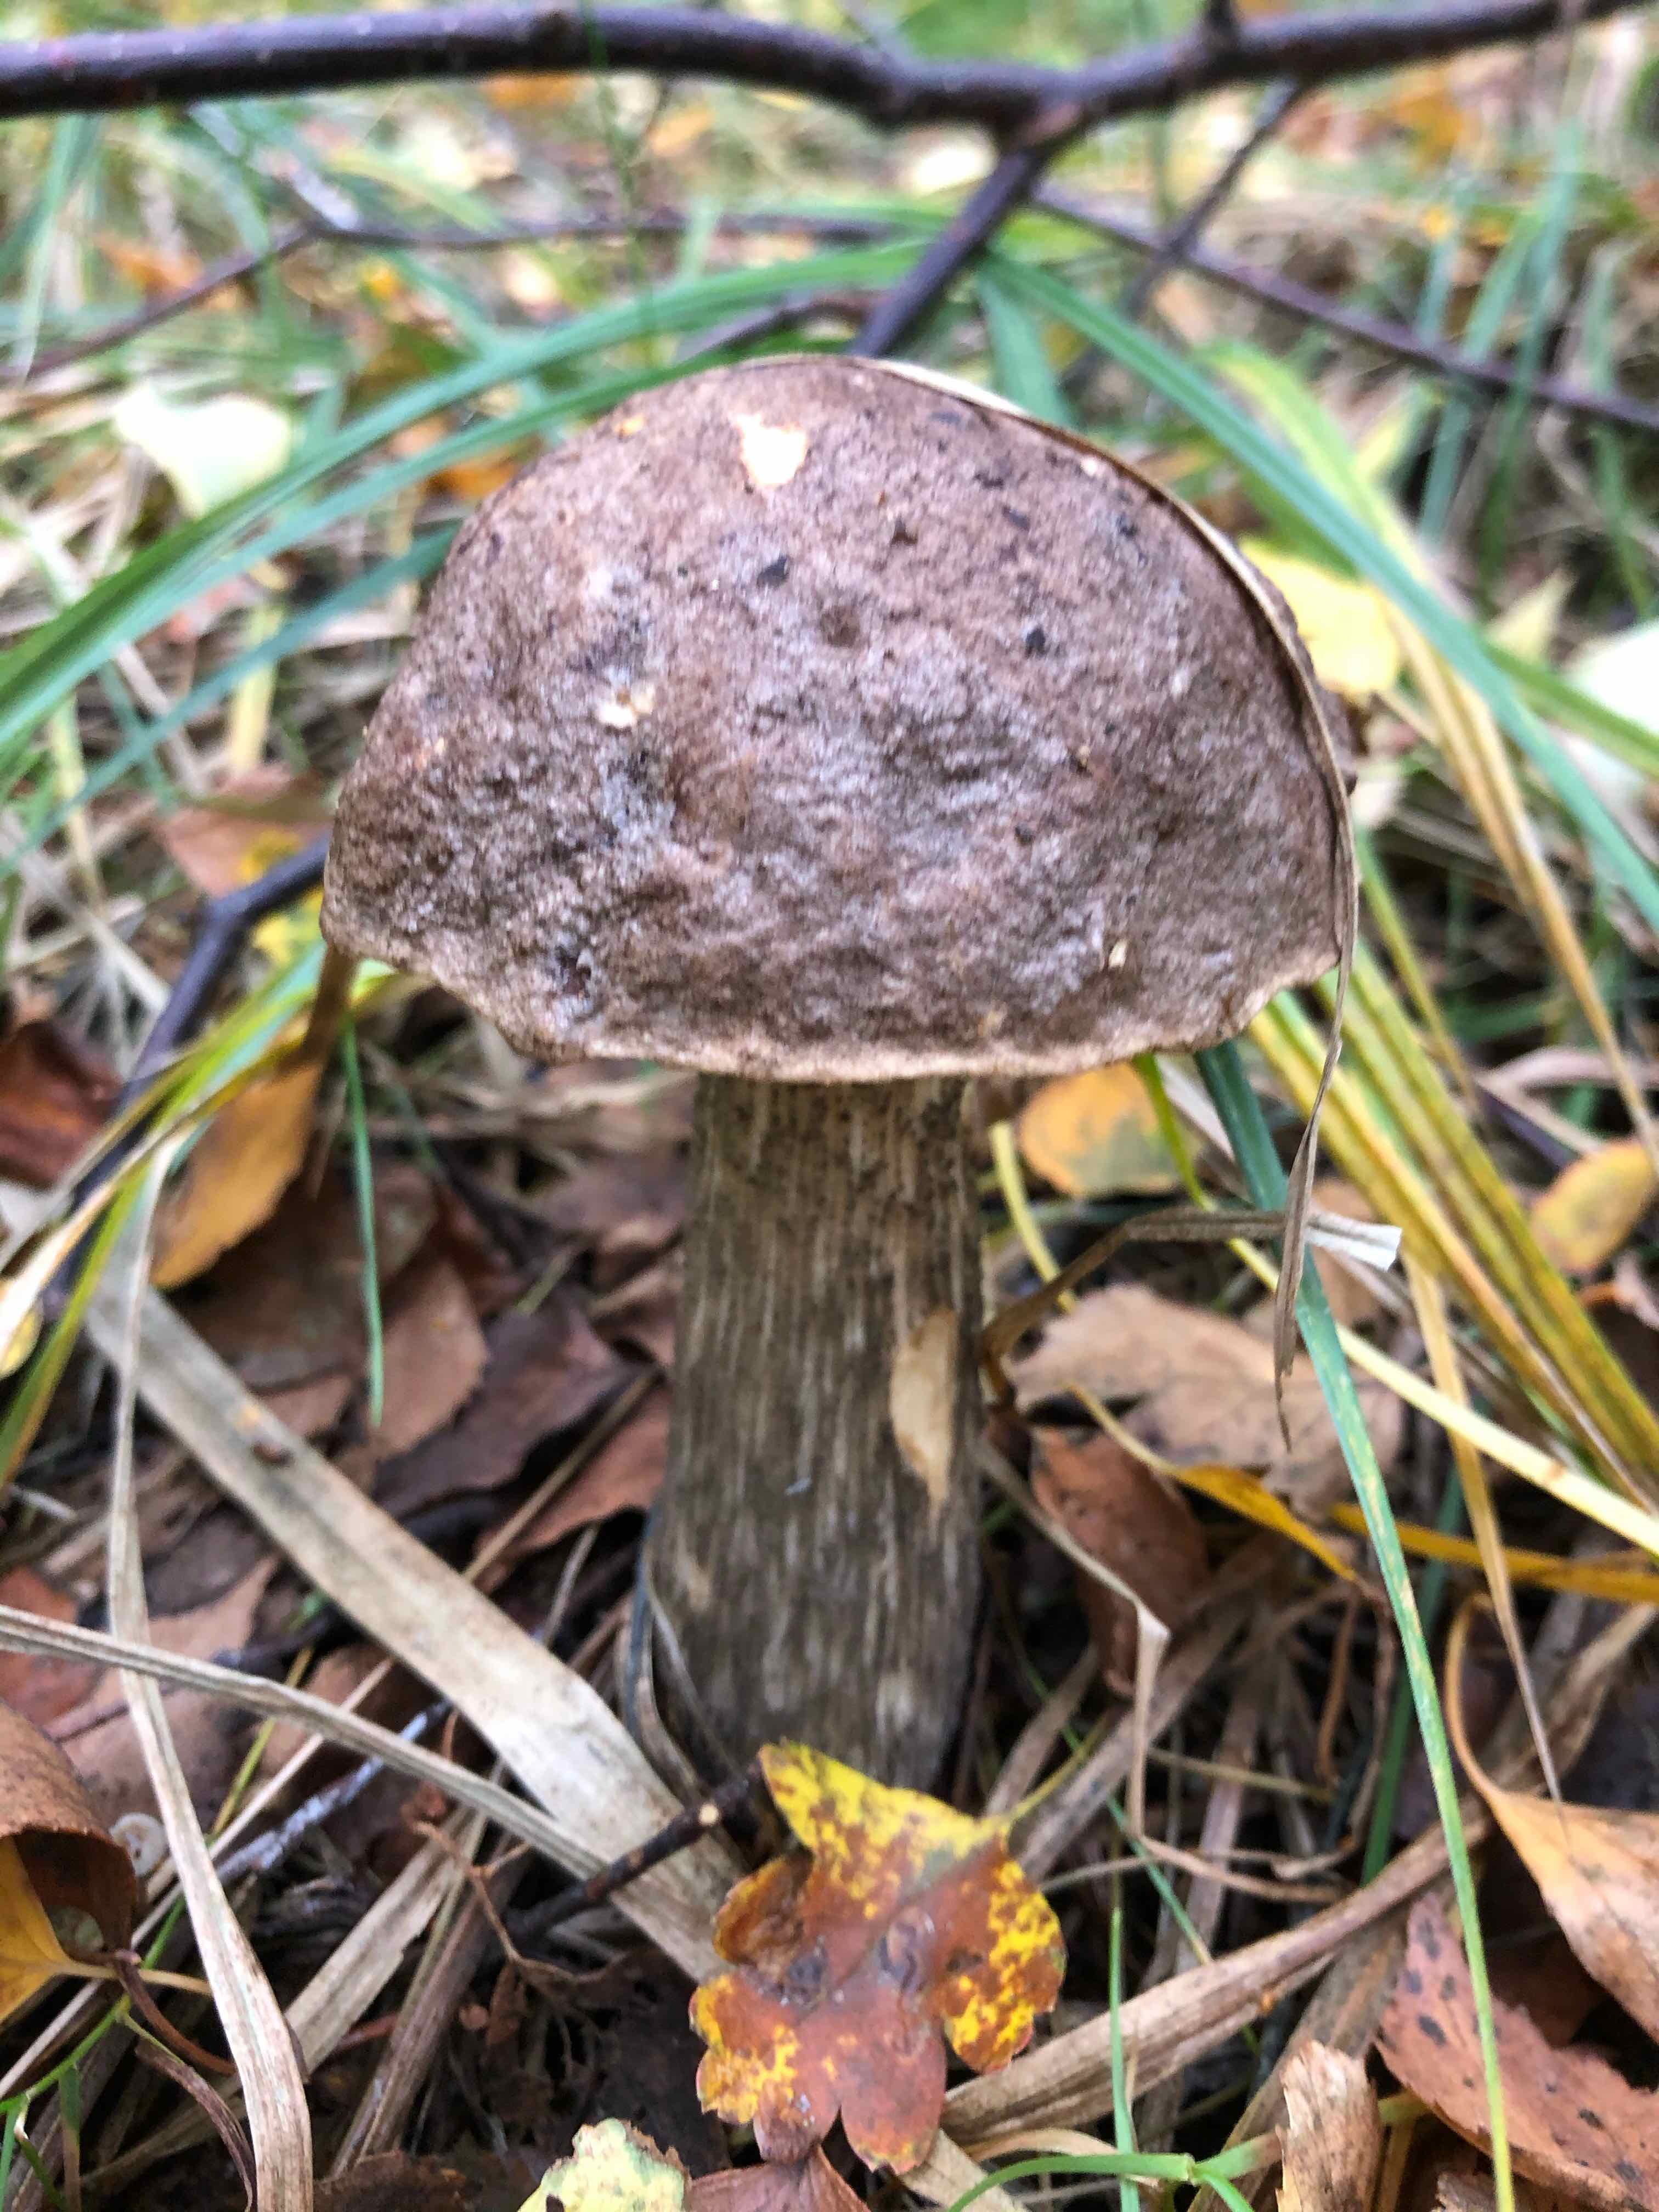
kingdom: Fungi
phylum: Basidiomycota
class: Agaricomycetes
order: Boletales
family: Boletaceae
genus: Leccinum
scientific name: Leccinum melaneum
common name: mørk skælrørhat
